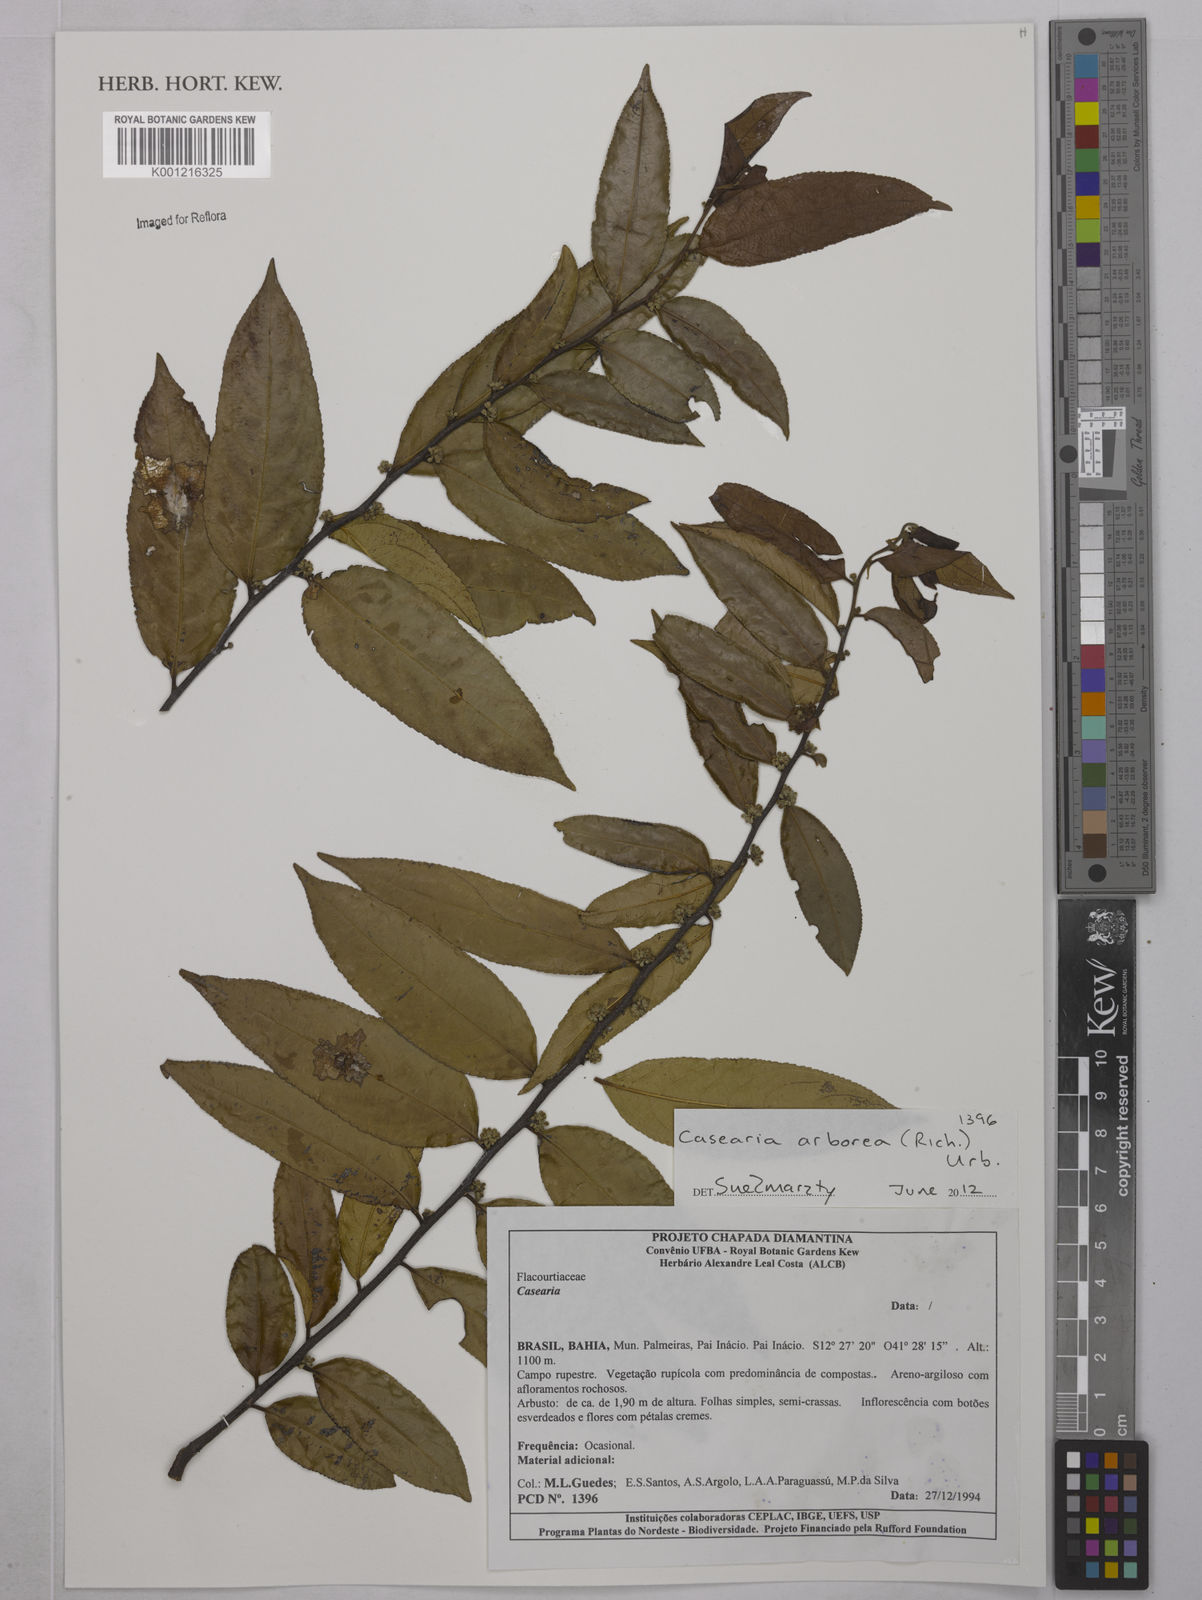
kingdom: Plantae
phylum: Tracheophyta
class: Magnoliopsida
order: Malpighiales
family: Salicaceae
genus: Casearia
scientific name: Casearia arborea
